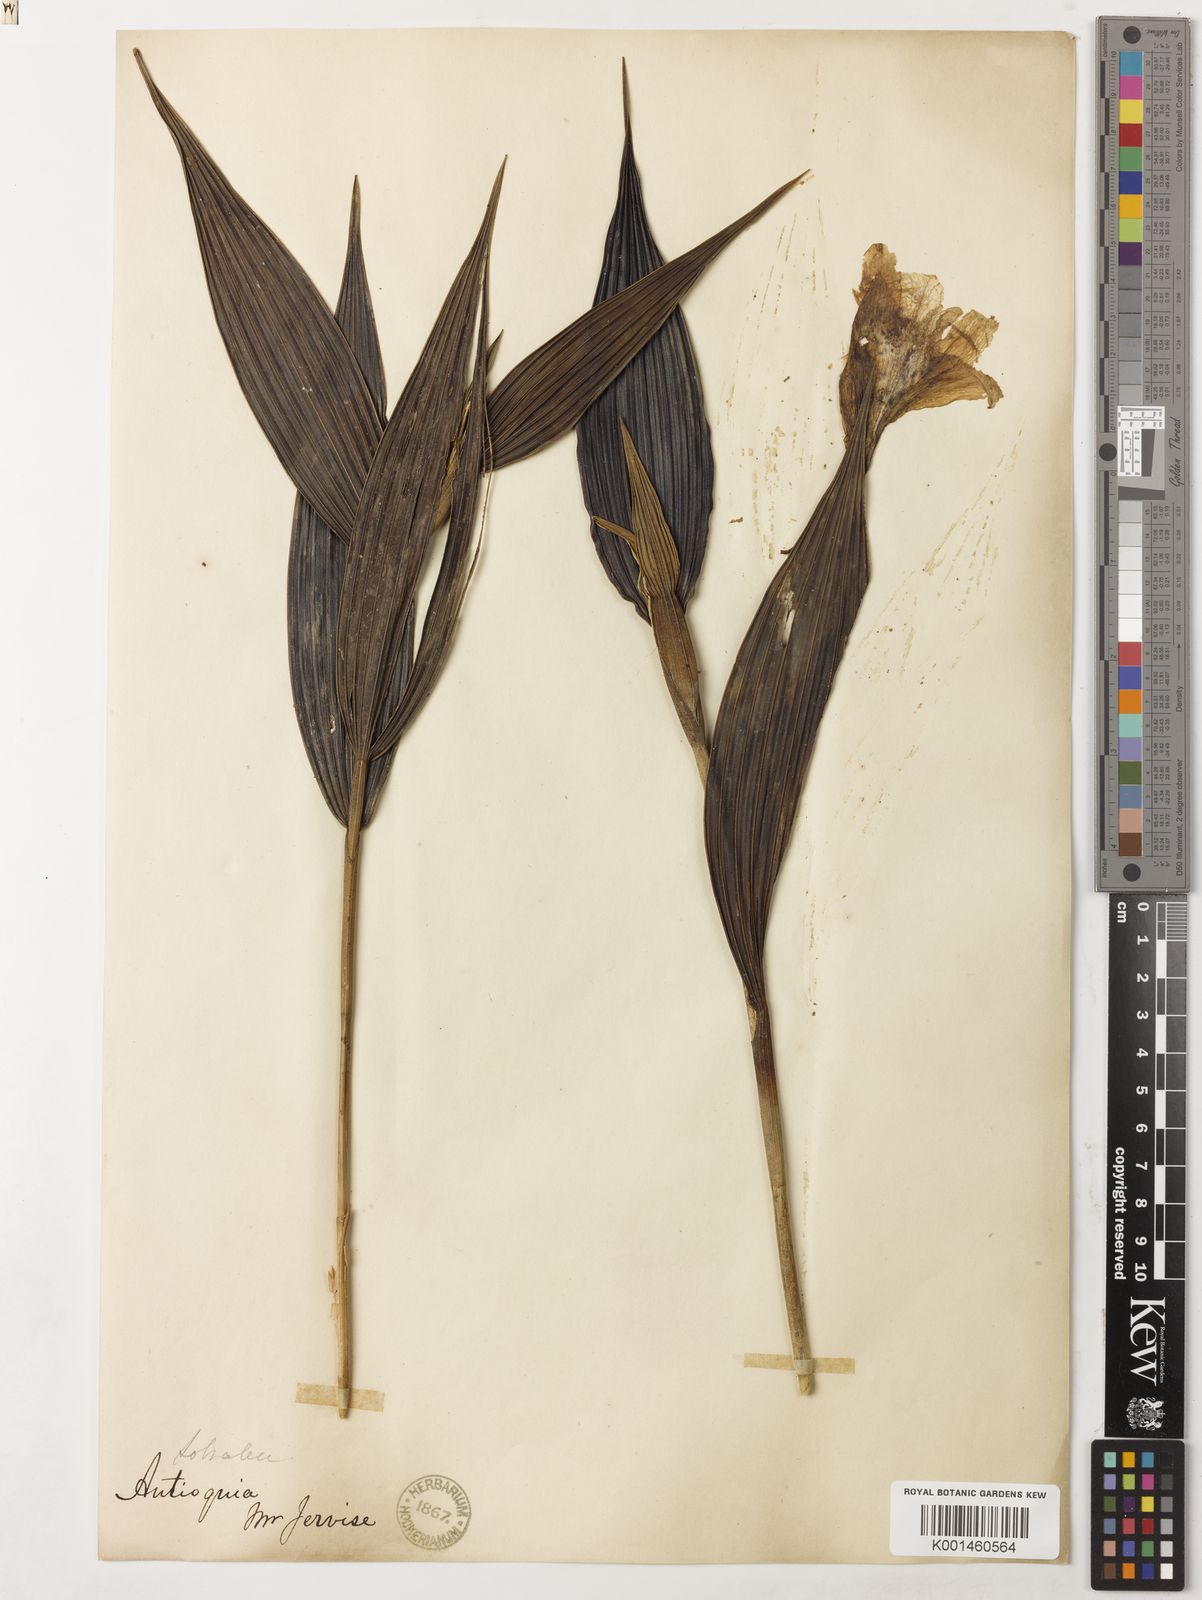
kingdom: Plantae
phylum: Tracheophyta
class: Liliopsida
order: Asparagales
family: Orchidaceae
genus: Sobralia
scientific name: Sobralia violacea
